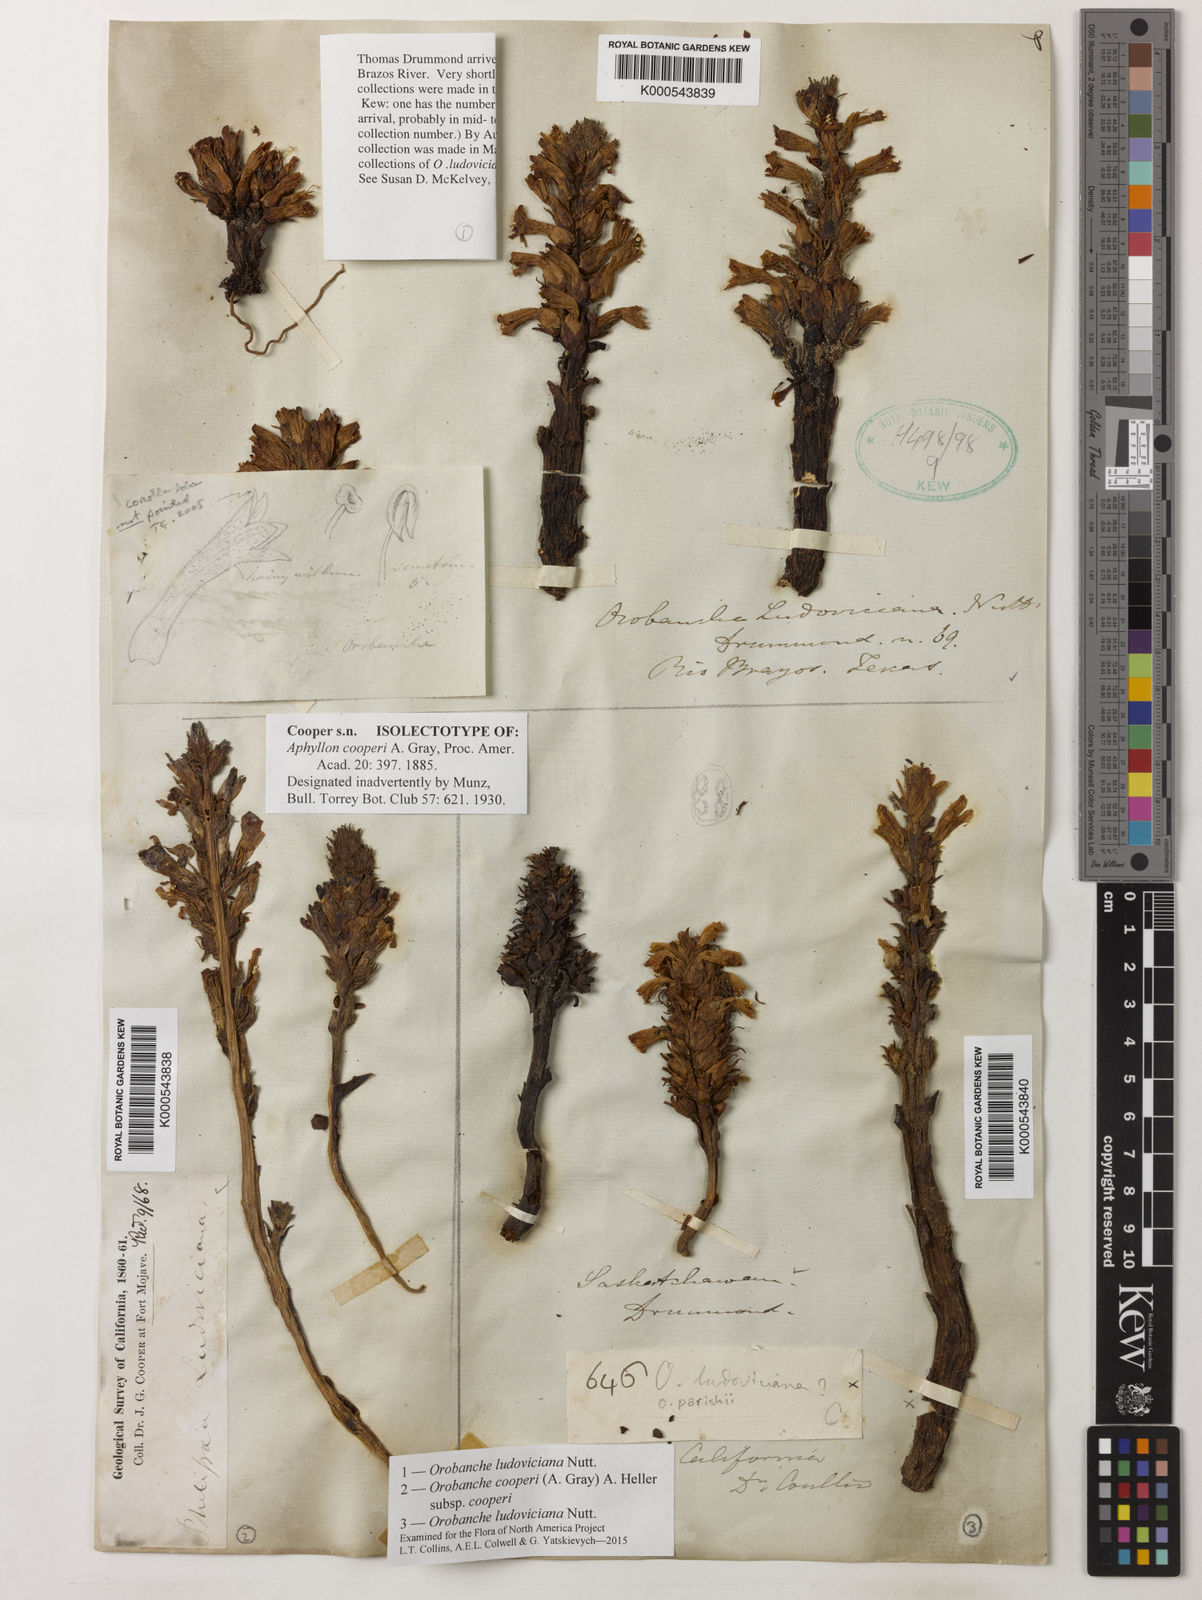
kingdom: Plantae
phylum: Tracheophyta
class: Magnoliopsida
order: Lamiales
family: Orobanchaceae
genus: Aphyllon
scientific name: Aphyllon cooperi
